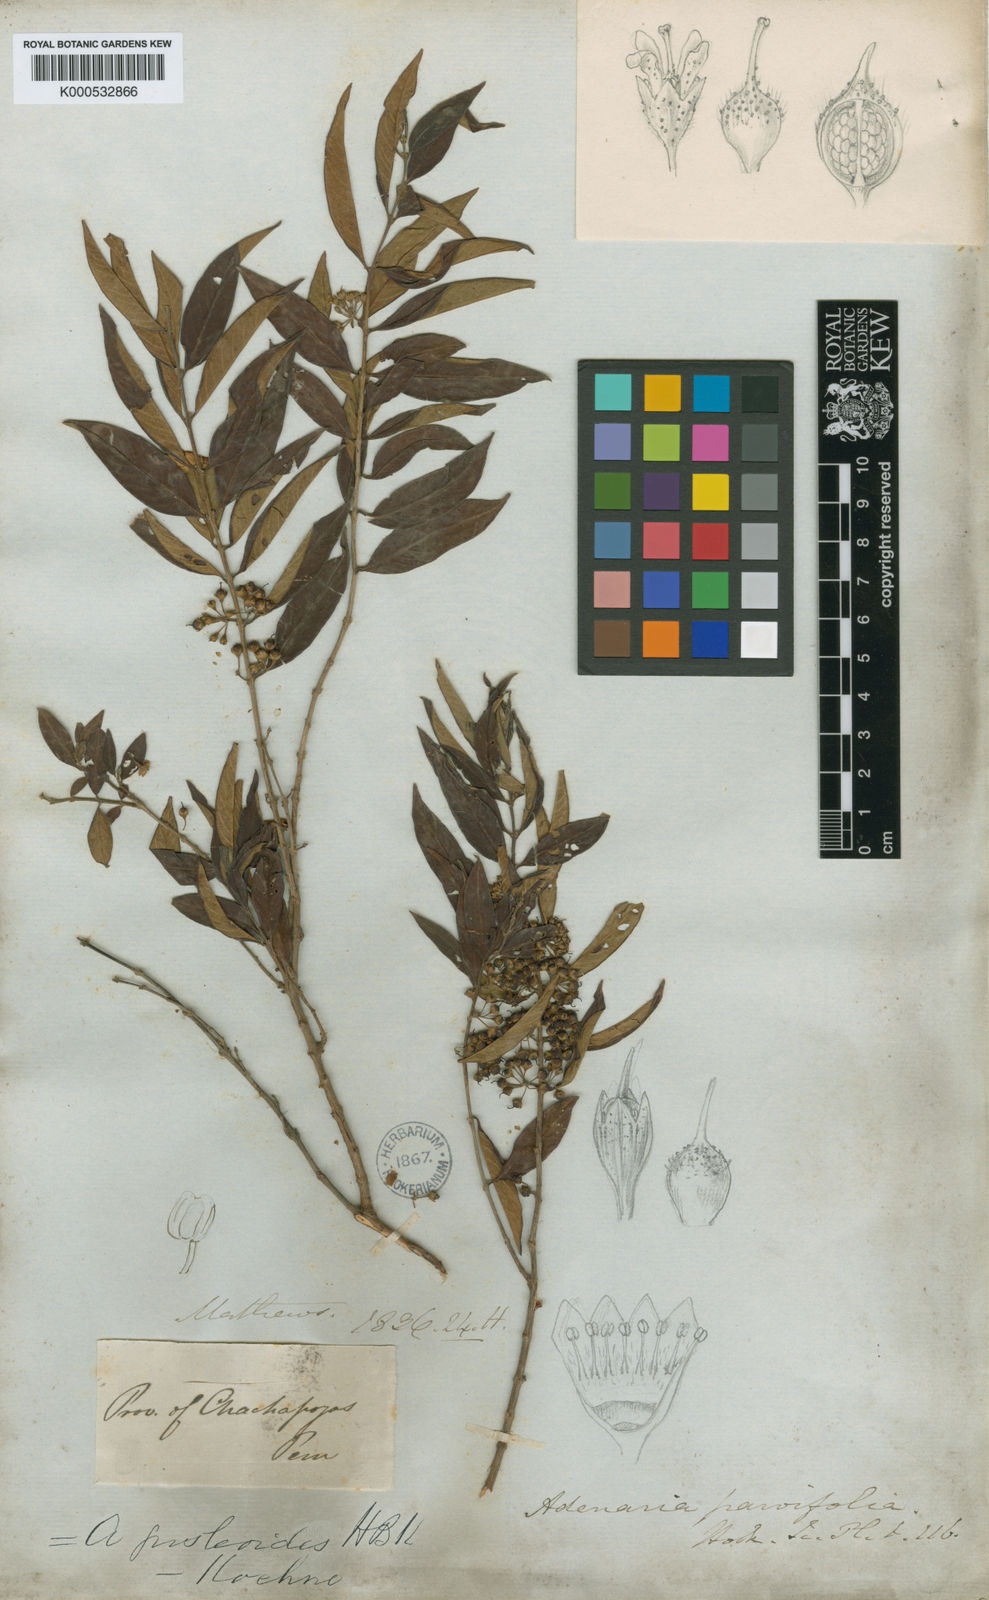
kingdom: Plantae
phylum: Tracheophyta
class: Magnoliopsida
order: Myrtales
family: Lythraceae
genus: Adenaria
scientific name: Adenaria floribunda
